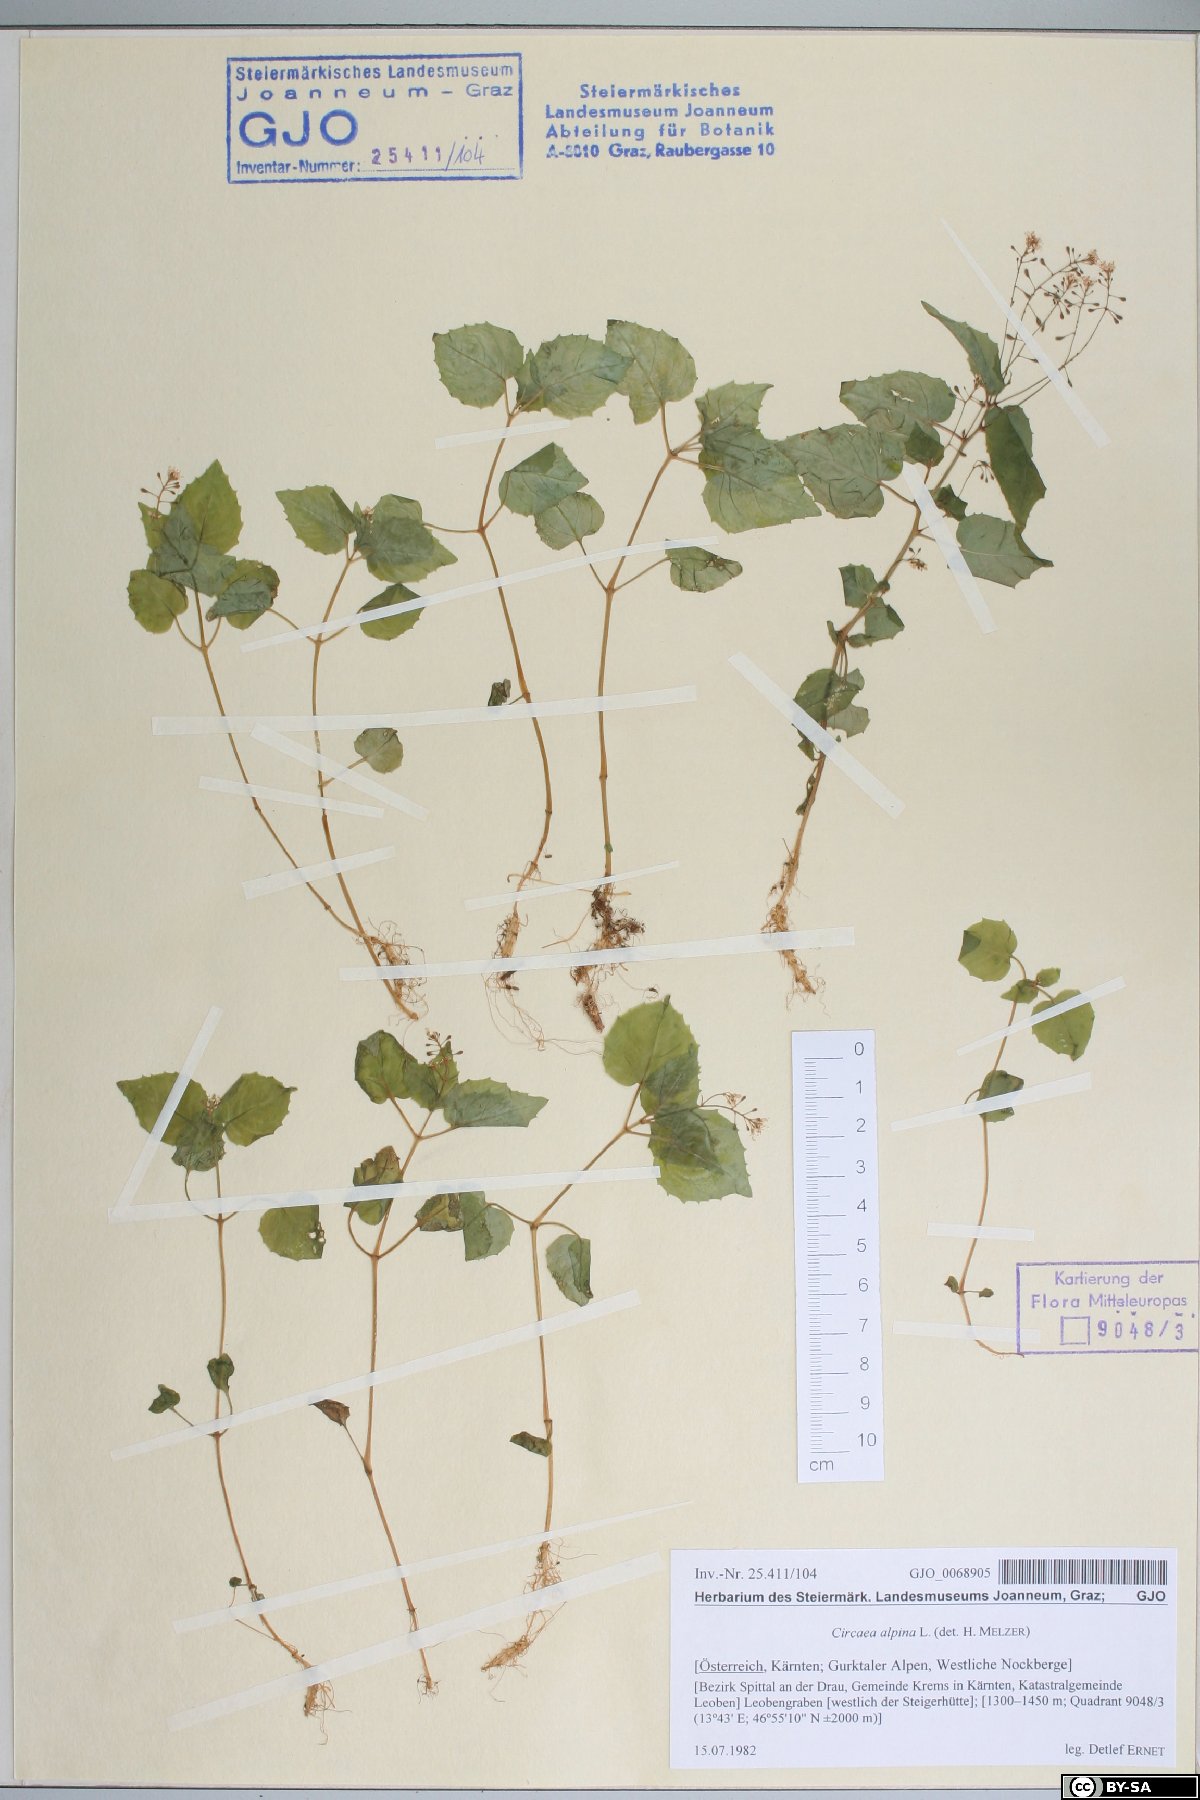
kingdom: Plantae
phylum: Tracheophyta
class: Magnoliopsida
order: Myrtales
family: Onagraceae
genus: Circaea
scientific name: Circaea alpina
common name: Alpine enchanter's-nightshade
